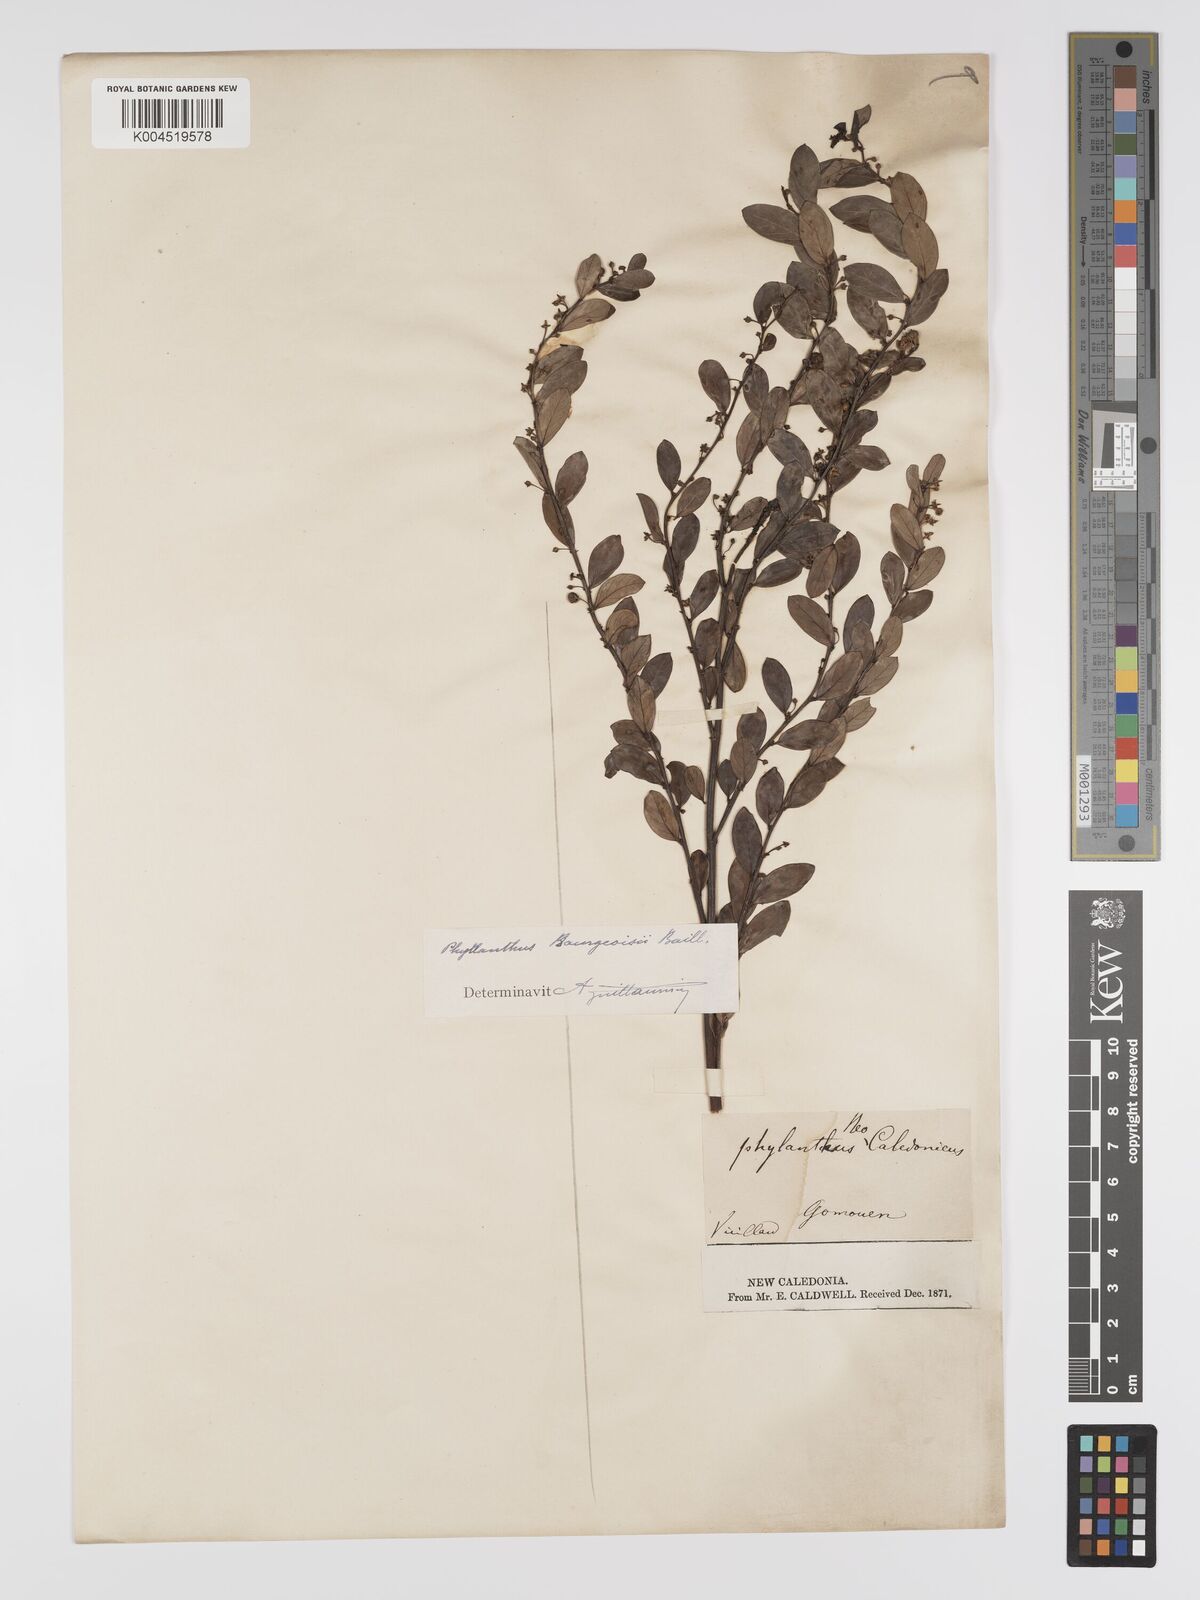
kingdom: Plantae
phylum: Tracheophyta
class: Magnoliopsida
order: Malpighiales
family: Phyllanthaceae
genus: Phyllanthus
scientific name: Phyllanthus bourgeoisii
